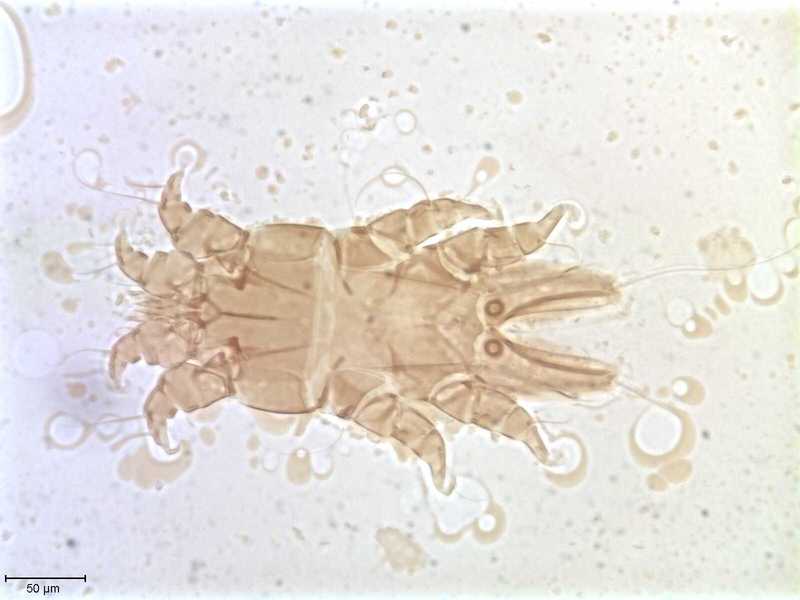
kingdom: Animalia
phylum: Arthropoda
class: Arachnida
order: Sarcoptiformes
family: Alloptidae
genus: Brephosceles
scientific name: Brephosceles
